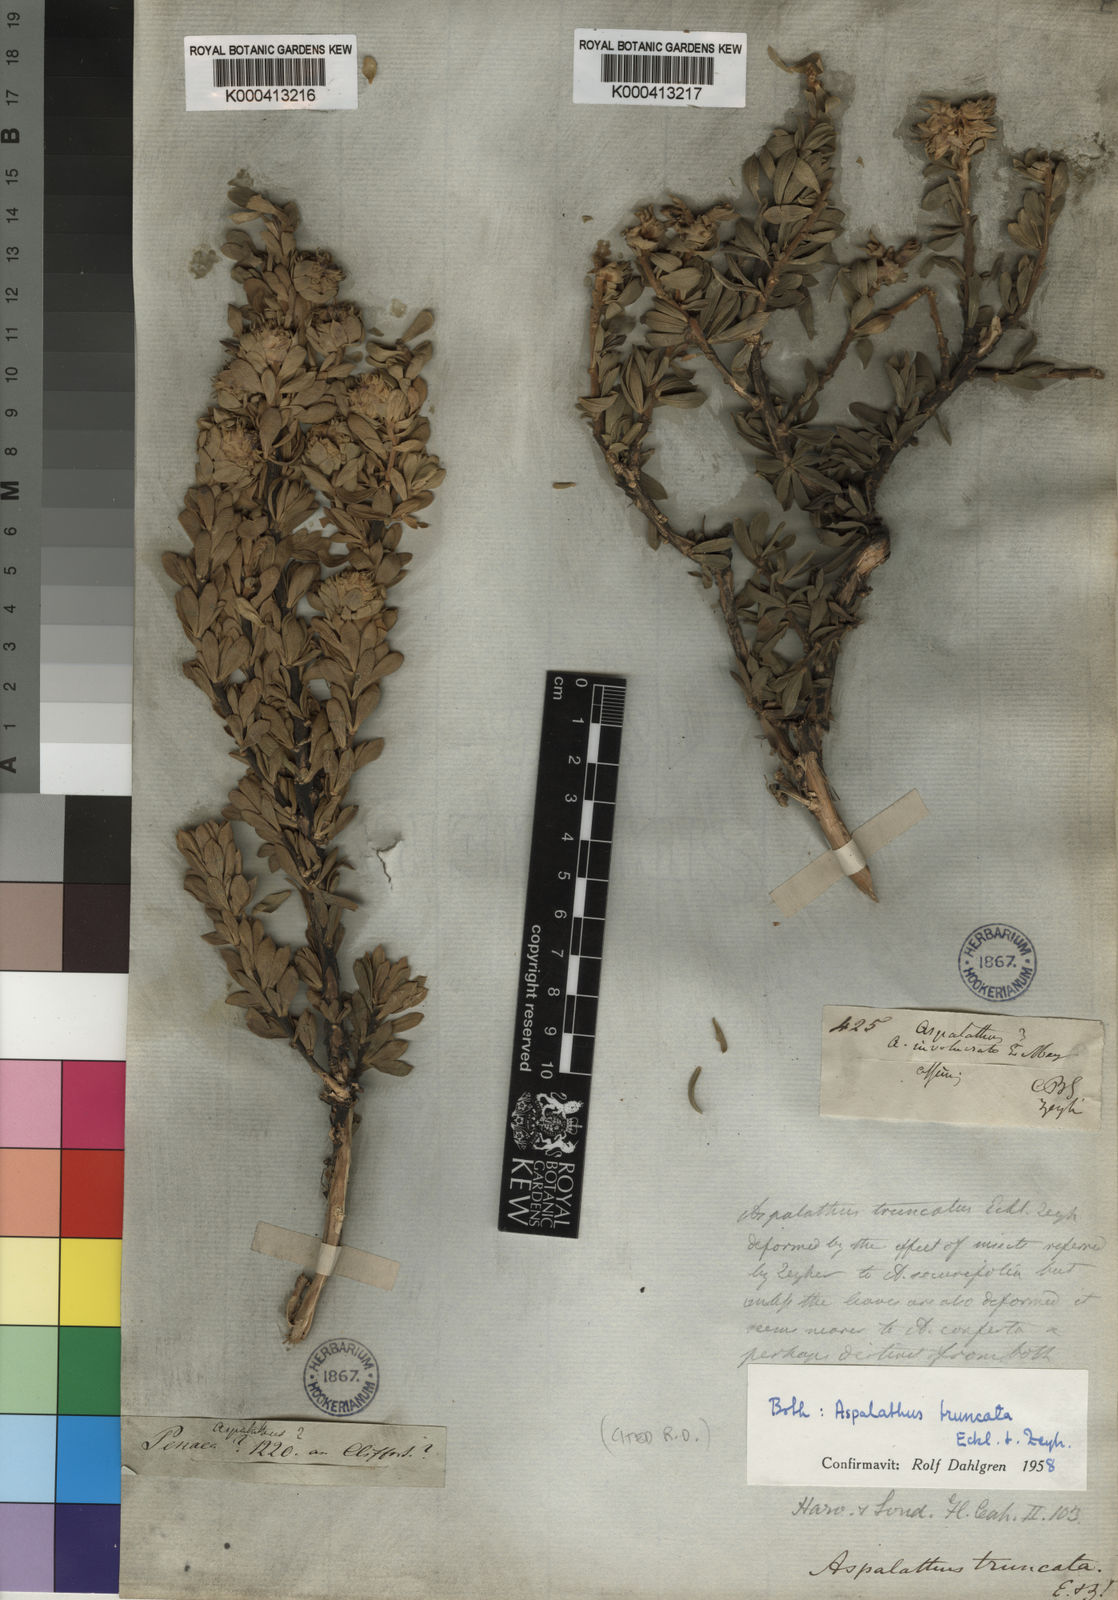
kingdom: Plantae
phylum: Tracheophyta
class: Magnoliopsida
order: Fabales
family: Fabaceae
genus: Aspalathus
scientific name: Aspalathus truncata
